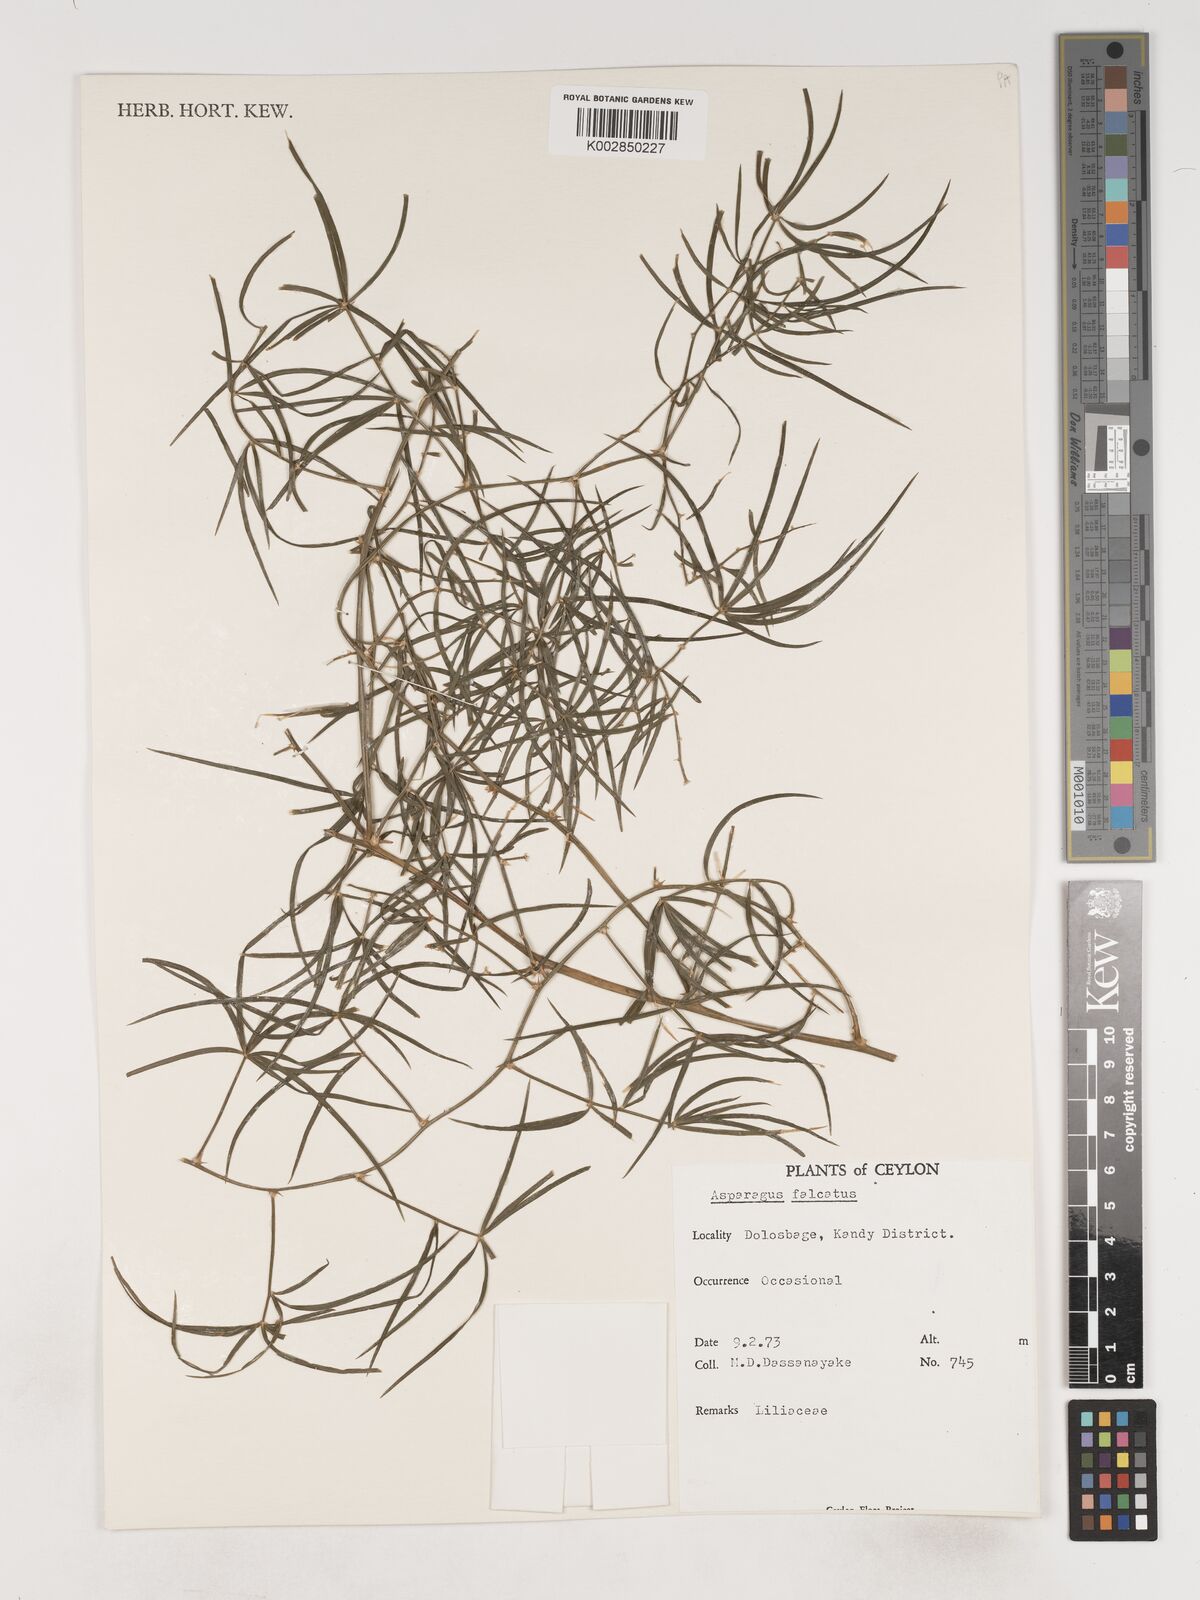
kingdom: Plantae
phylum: Tracheophyta
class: Liliopsida
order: Asparagales
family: Asparagaceae
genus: Asparagus
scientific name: Asparagus falcatus
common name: Asparagus
